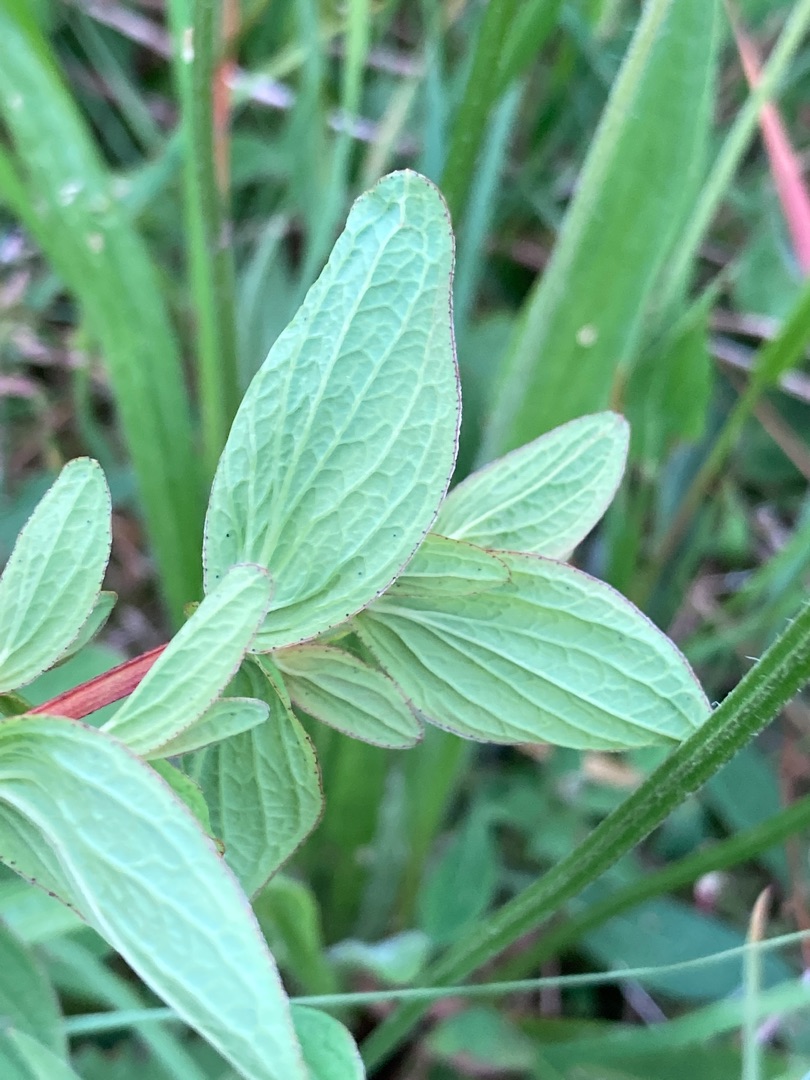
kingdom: Plantae
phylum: Tracheophyta
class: Magnoliopsida
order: Malpighiales
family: Hypericaceae
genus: Hypericum
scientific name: Hypericum maculatum
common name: Kantet perikon
